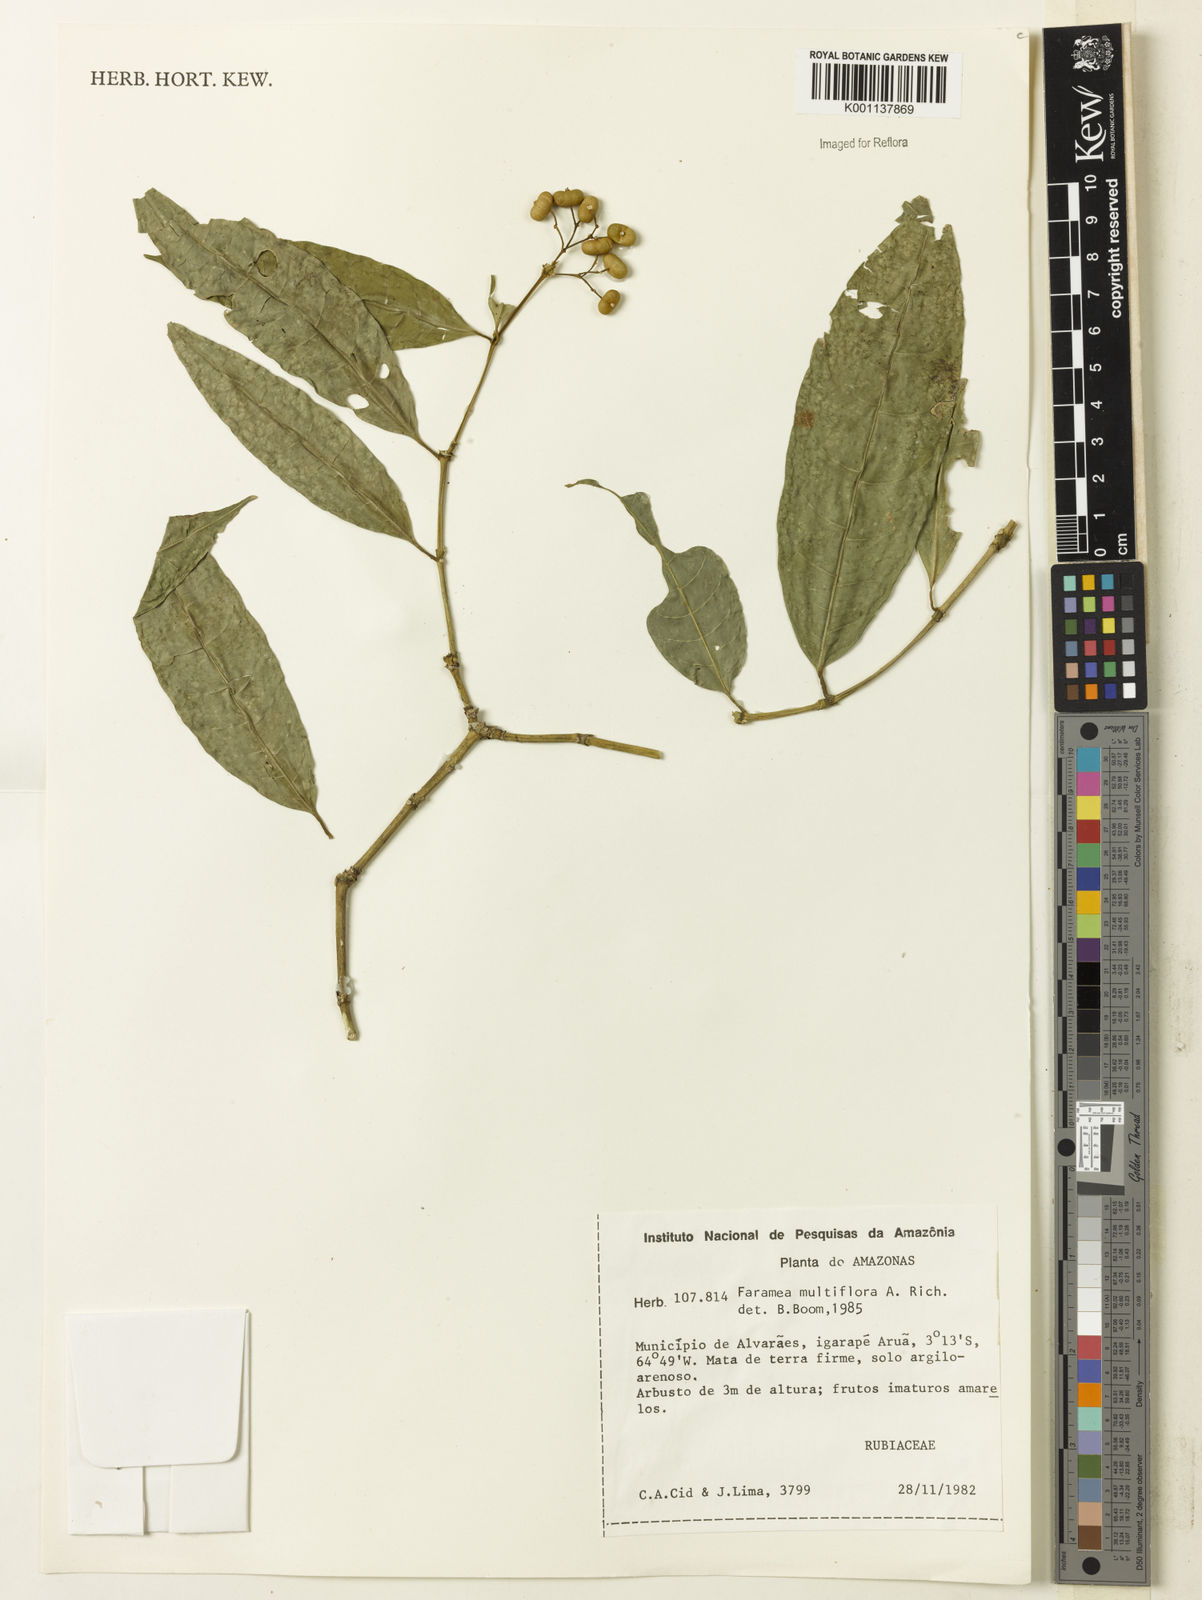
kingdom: Plantae
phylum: Tracheophyta
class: Magnoliopsida
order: Gentianales
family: Rubiaceae
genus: Faramea
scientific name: Faramea multiflora
